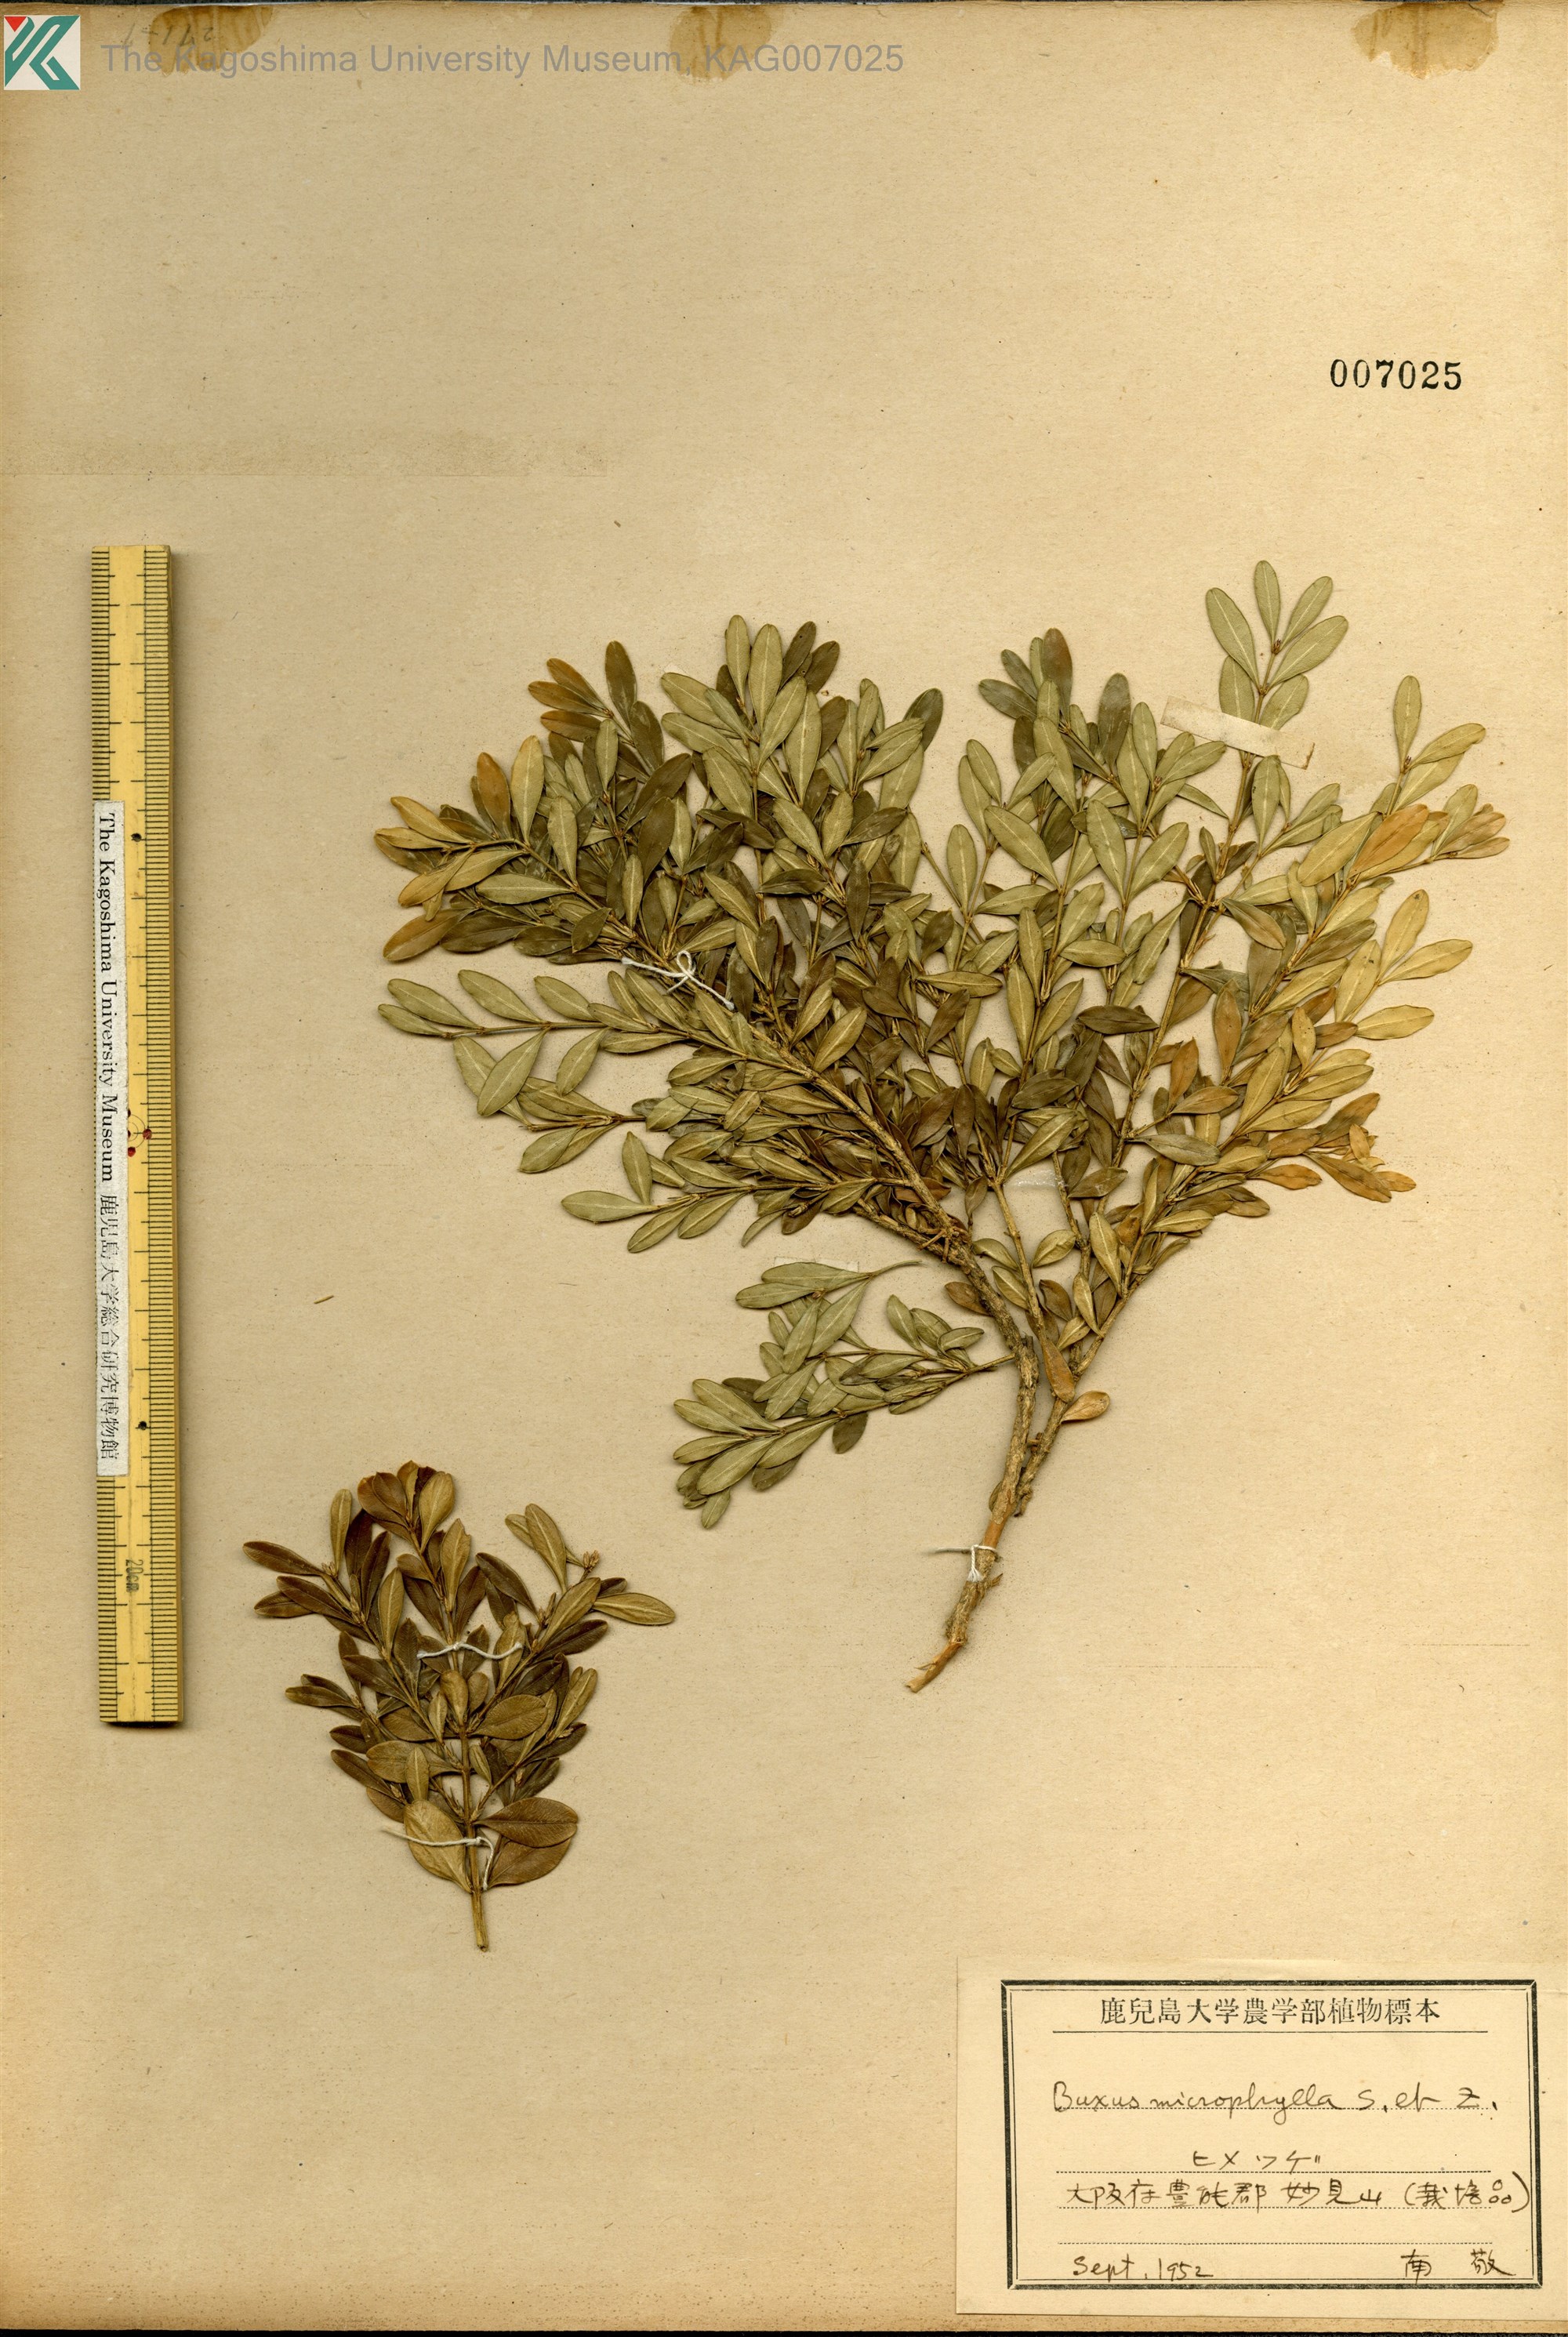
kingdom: Plantae
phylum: Tracheophyta
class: Magnoliopsida
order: Buxales
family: Buxaceae
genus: Buxus
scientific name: Buxus microphylla
